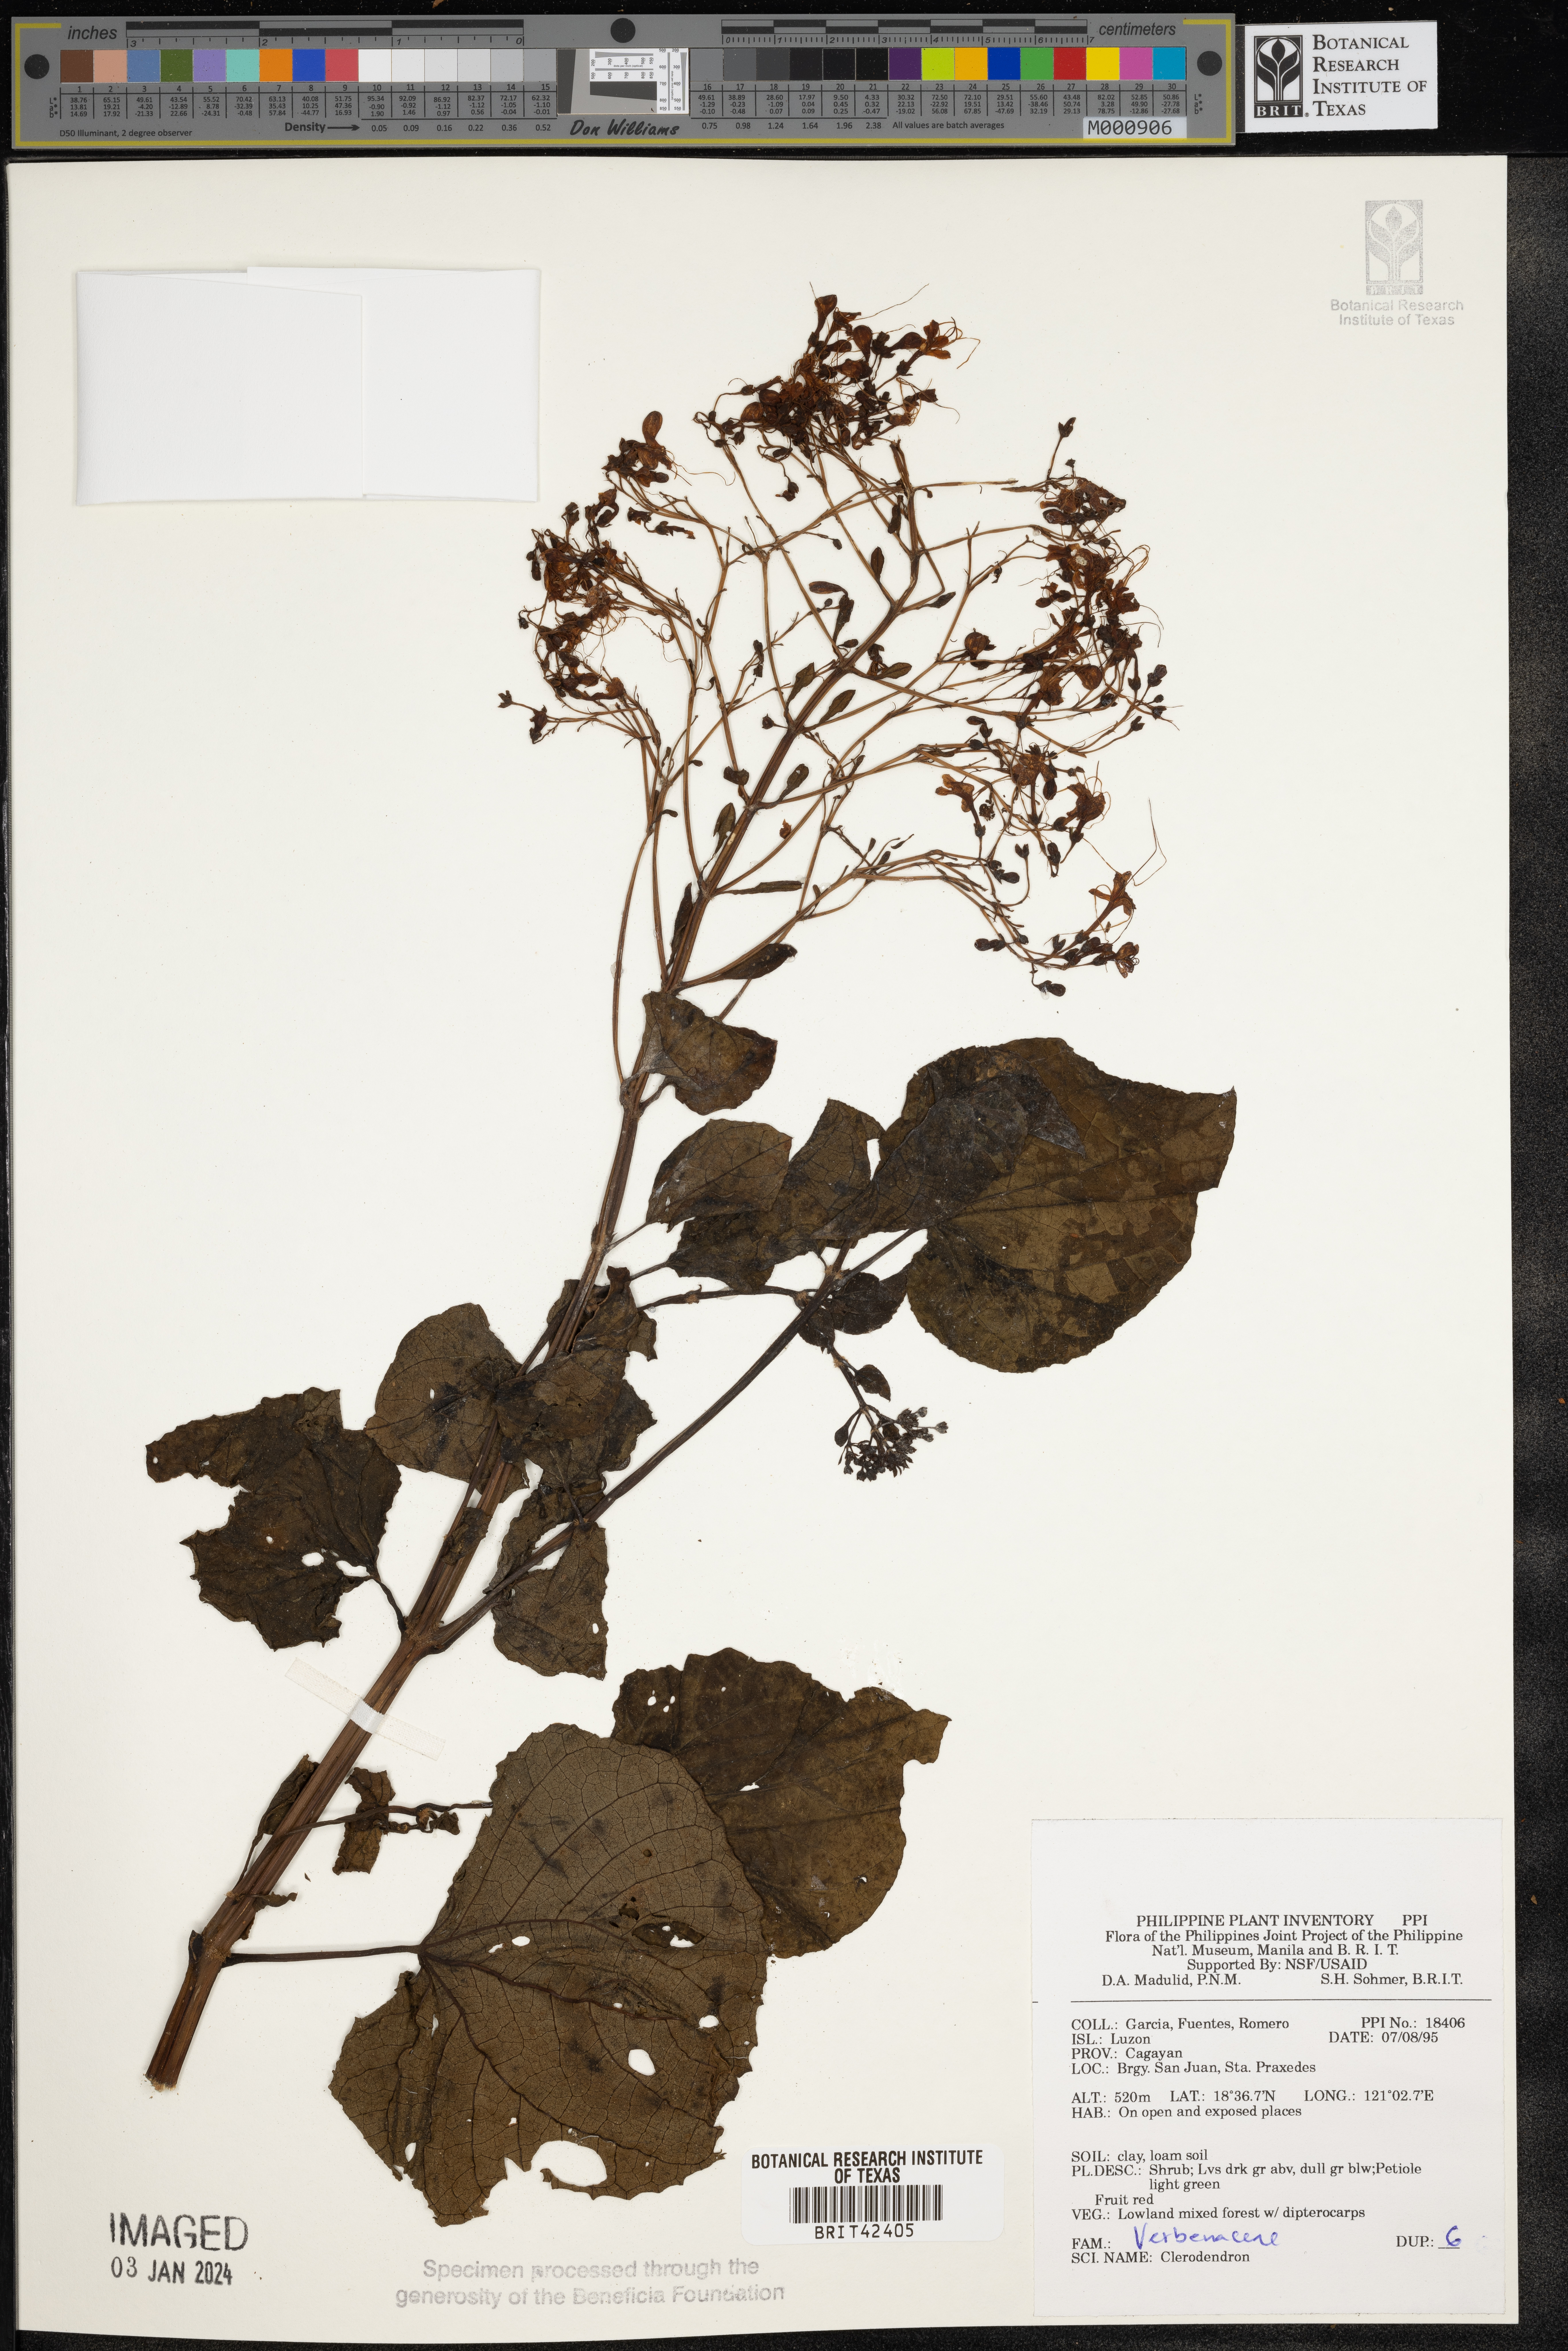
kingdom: Plantae
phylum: Tracheophyta
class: Magnoliopsida
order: Lamiales
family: Lamiaceae
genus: Clerodendrum
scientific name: Clerodendrum
